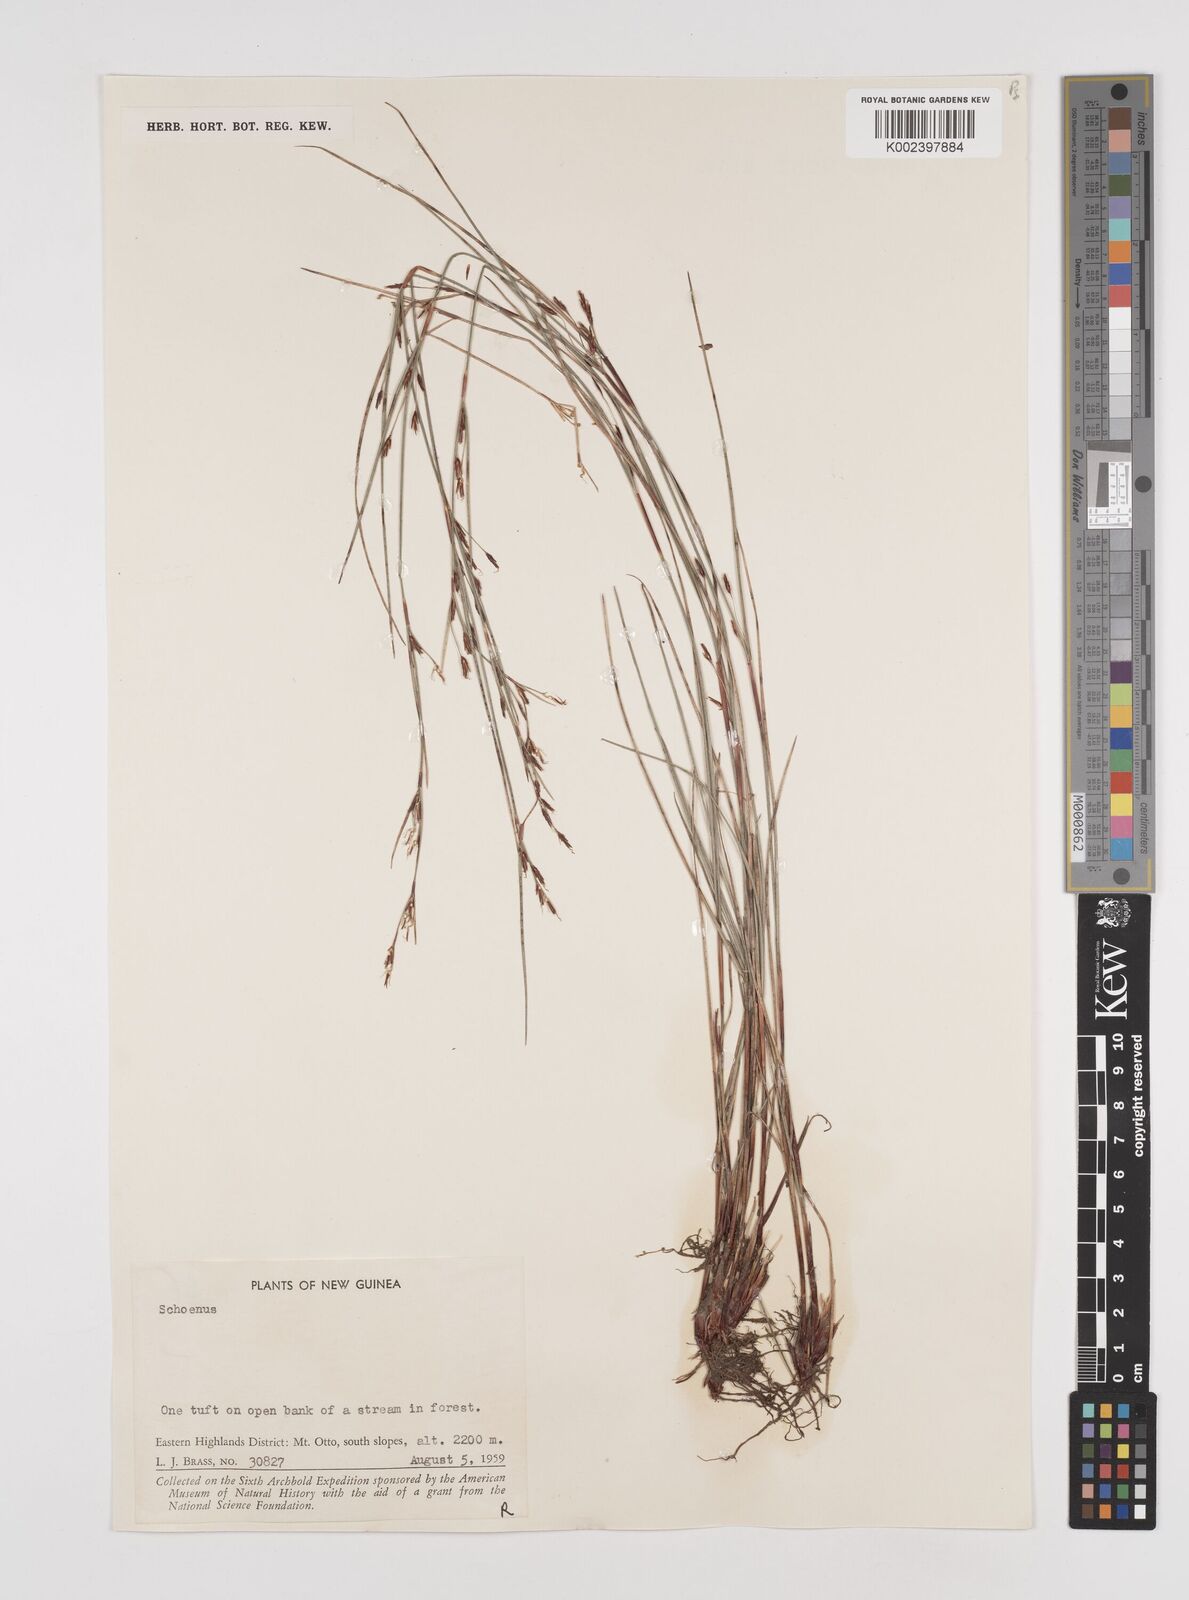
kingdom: Plantae
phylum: Tracheophyta
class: Liliopsida
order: Poales
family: Cyperaceae
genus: Schoenus
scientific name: Schoenus curvulus
